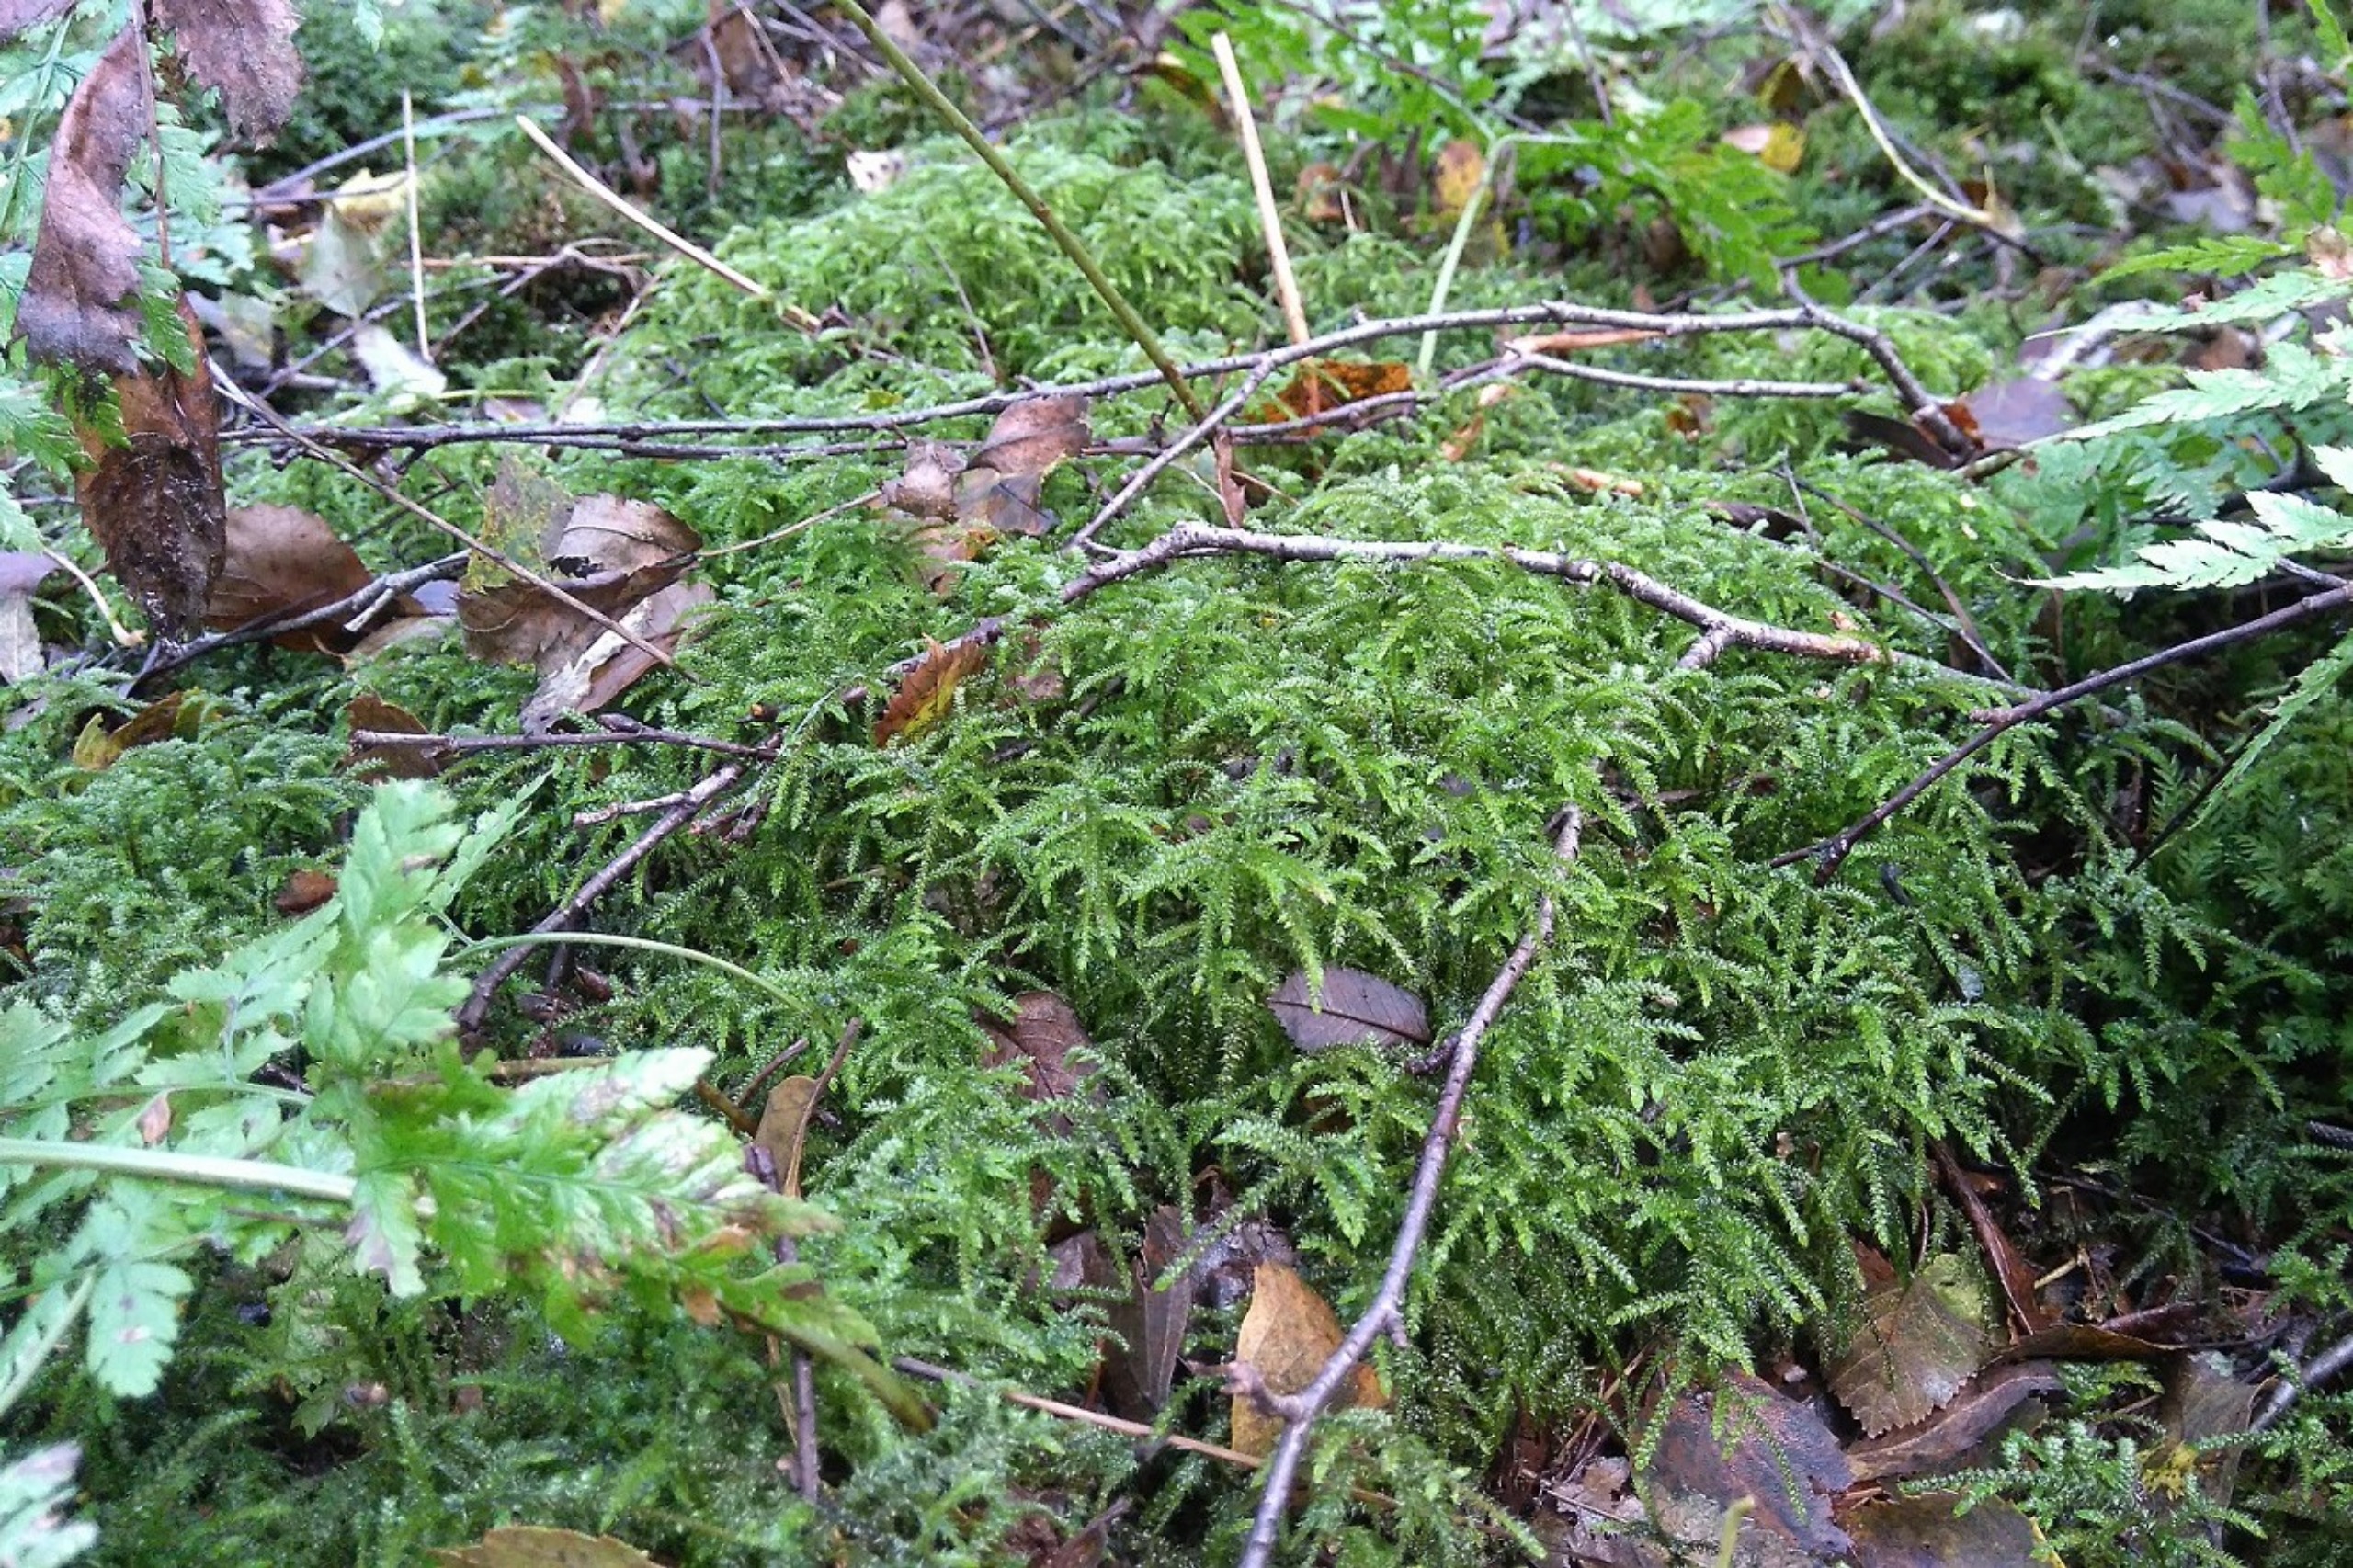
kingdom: Plantae
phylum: Bryophyta
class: Bryopsida
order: Hypnales
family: Hylocomiaceae
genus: Loeskeobryum
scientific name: Loeskeobryum brevirostre
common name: Åben etagemos
